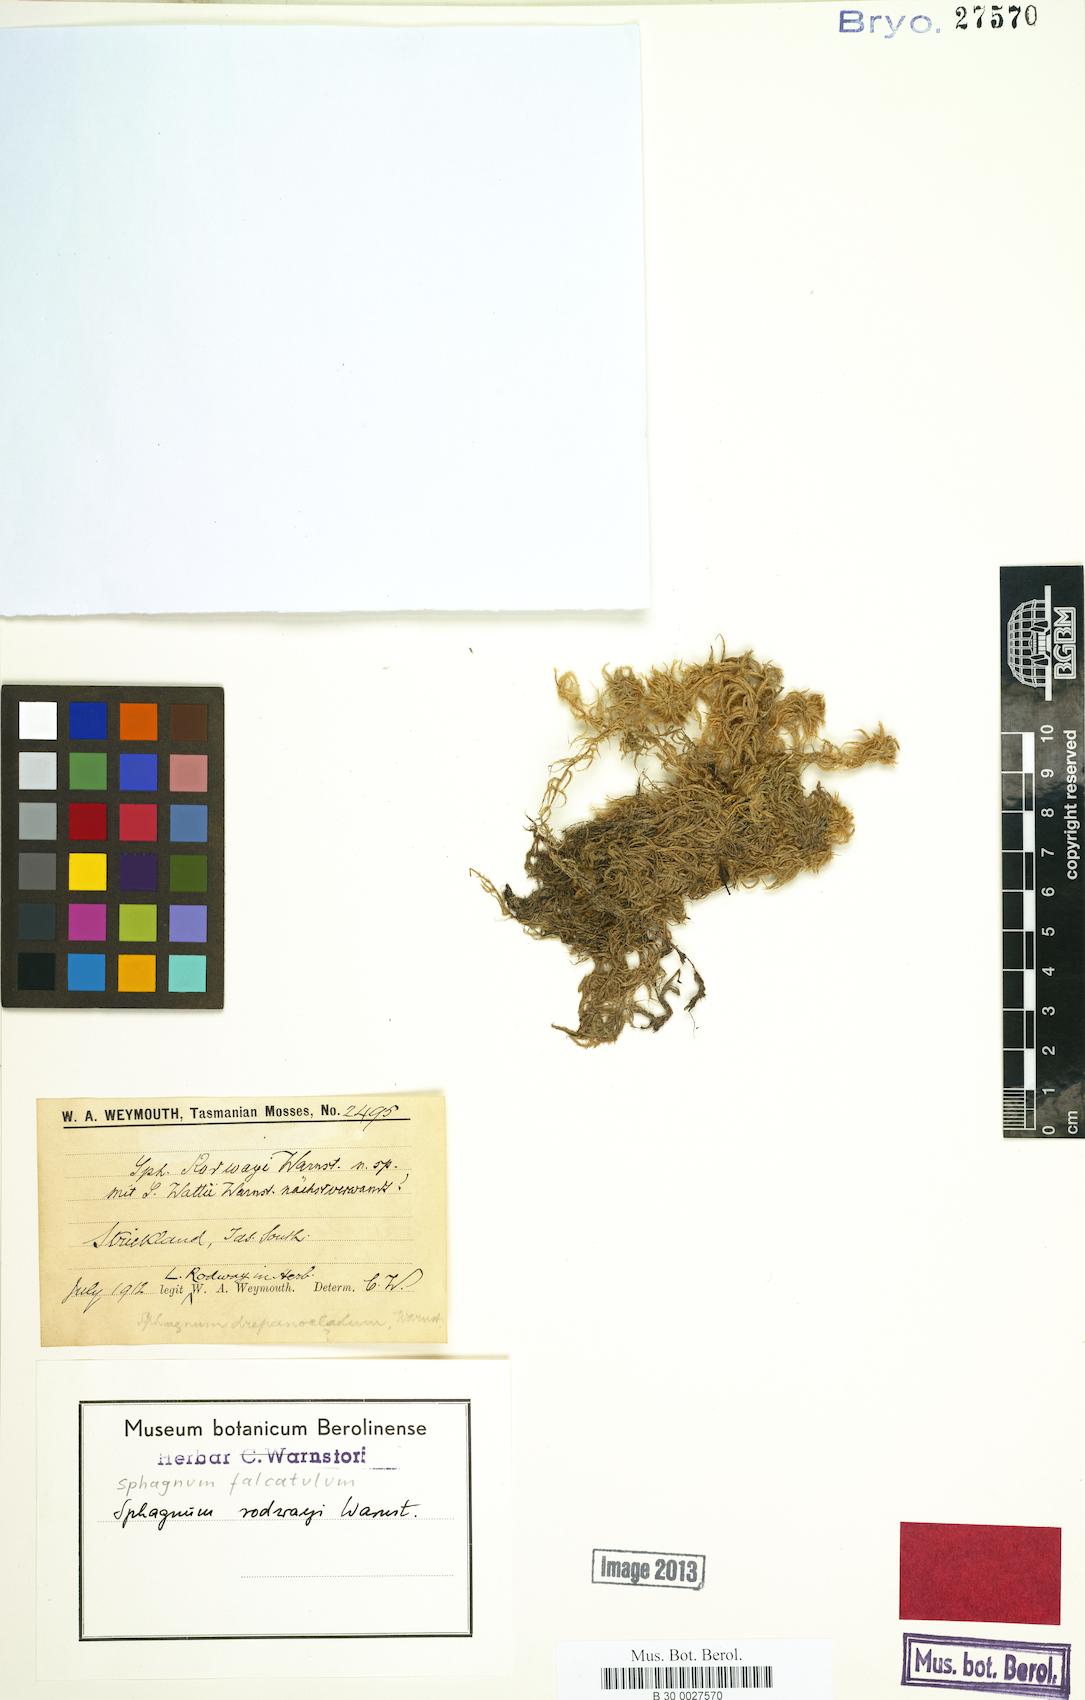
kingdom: Plantae
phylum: Bryophyta
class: Sphagnopsida
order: Sphagnales
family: Sphagnaceae
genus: Sphagnum
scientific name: Sphagnum falcatulum
